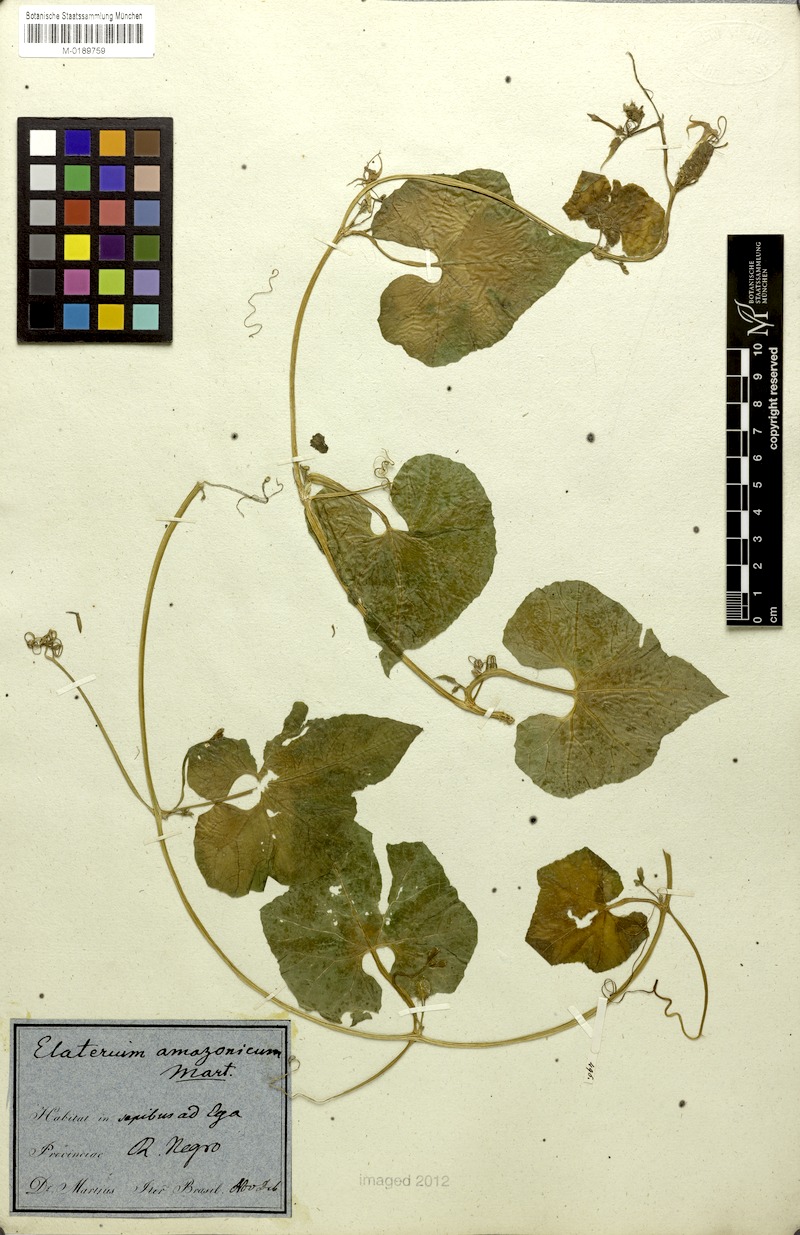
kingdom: Plantae
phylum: Tracheophyta
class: Magnoliopsida
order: Cucurbitales
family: Cucurbitaceae
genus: Cyclanthera
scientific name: Cyclanthera carthagenensis
